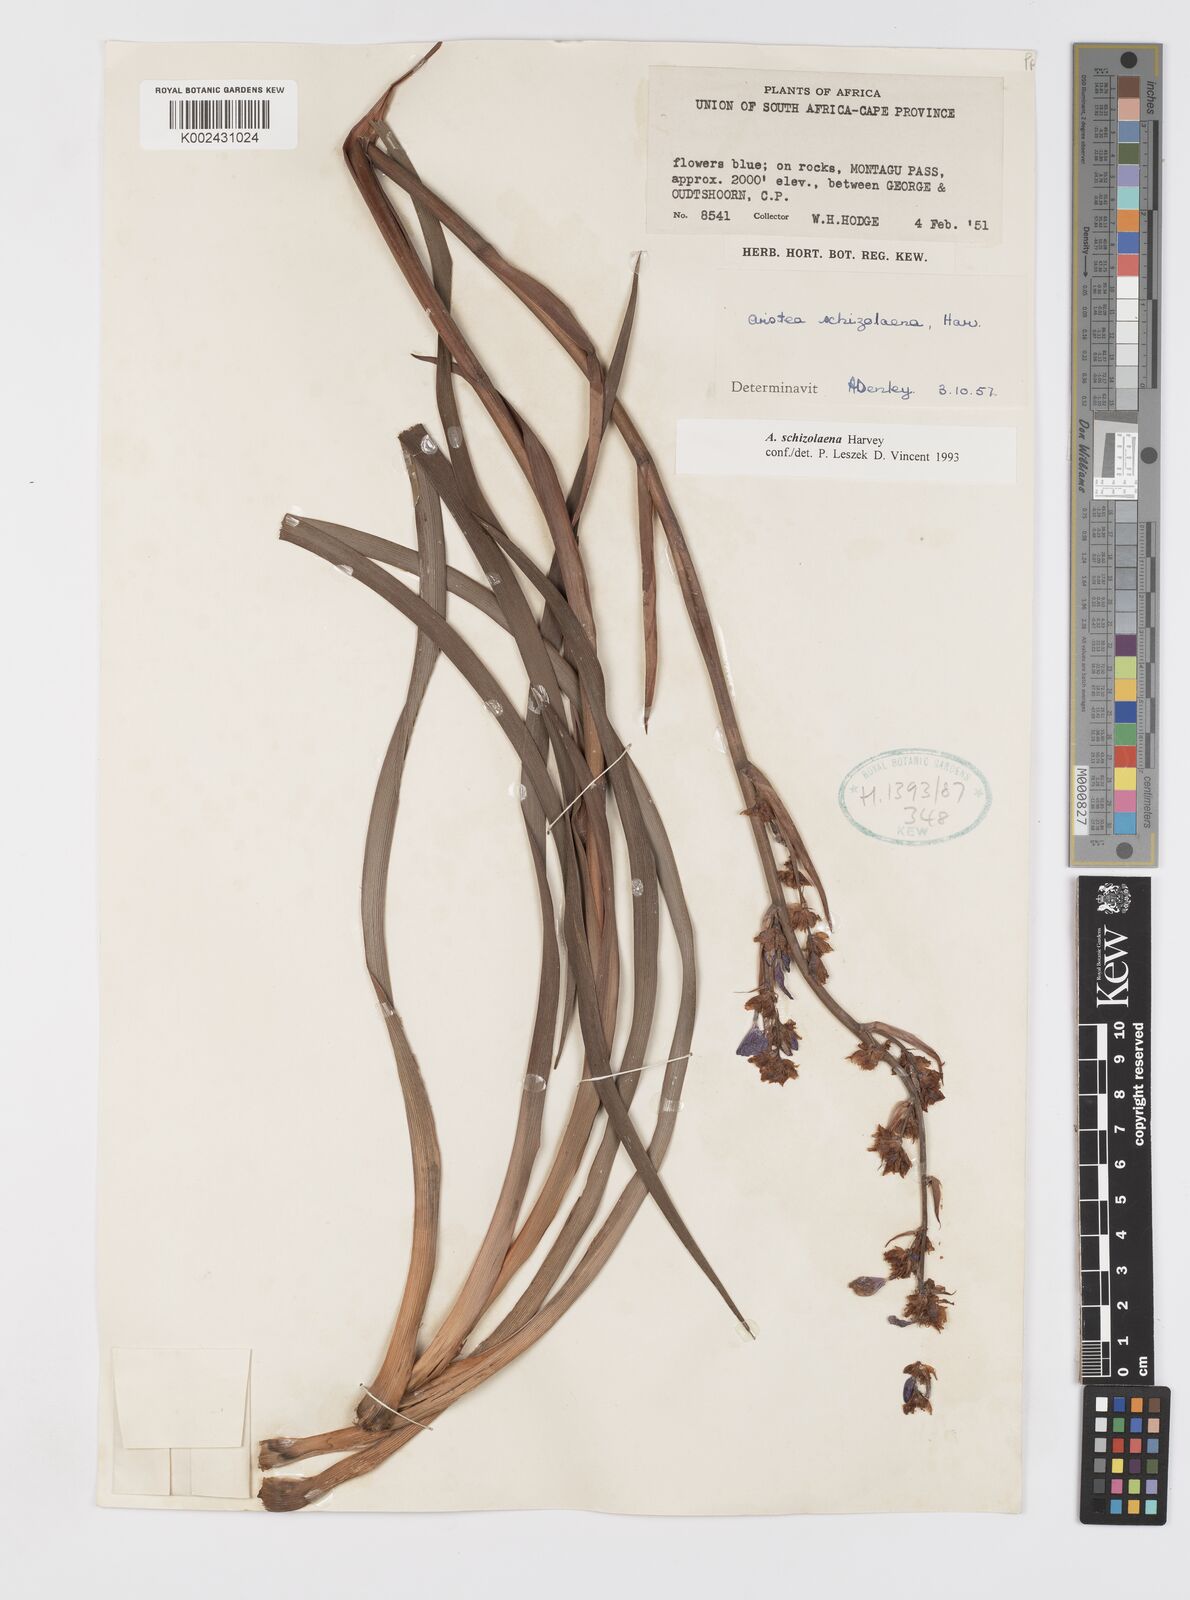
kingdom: Plantae
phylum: Tracheophyta
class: Liliopsida
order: Asparagales
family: Iridaceae
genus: Aristea
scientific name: Aristea capitata
